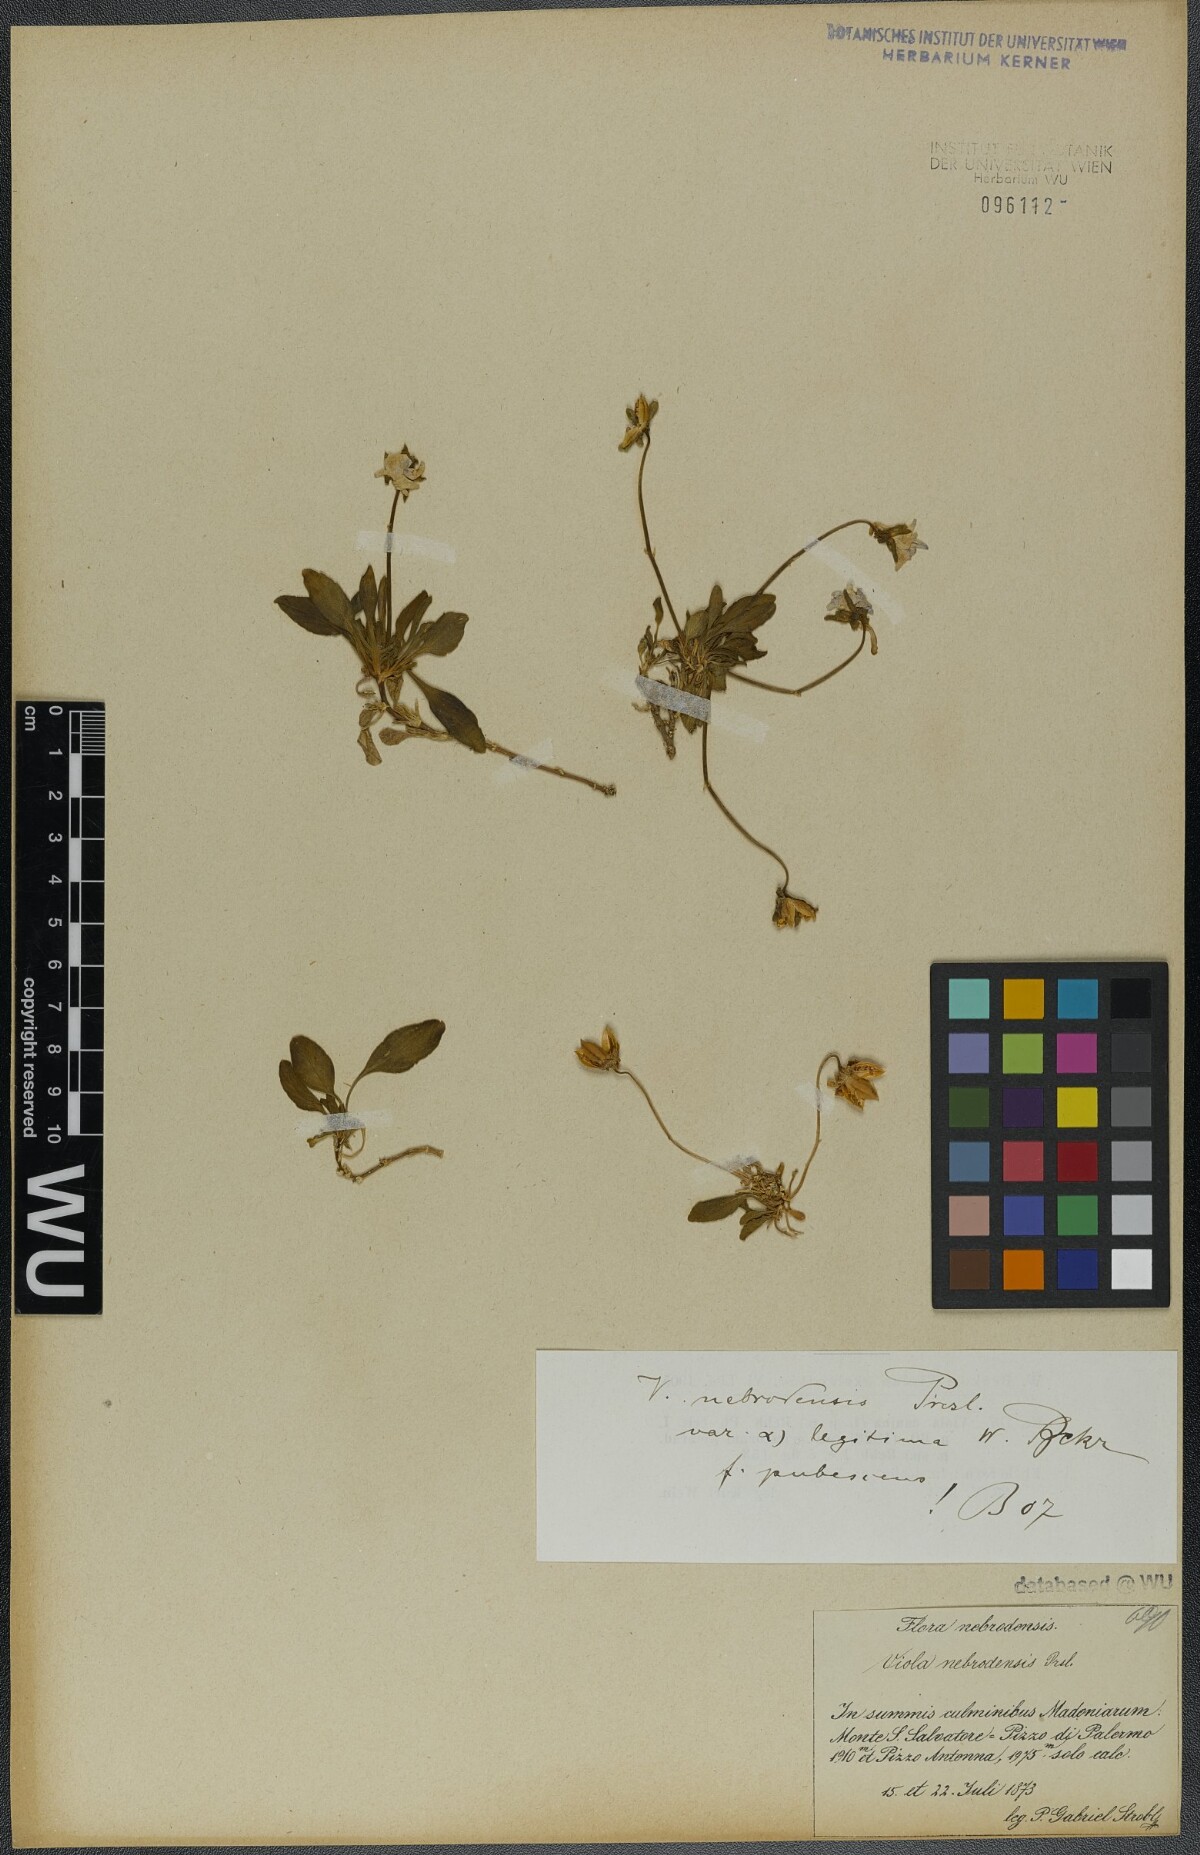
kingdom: Plantae
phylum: Tracheophyta
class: Magnoliopsida
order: Malpighiales
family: Violaceae
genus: Viola
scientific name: Viola nebrodensis
